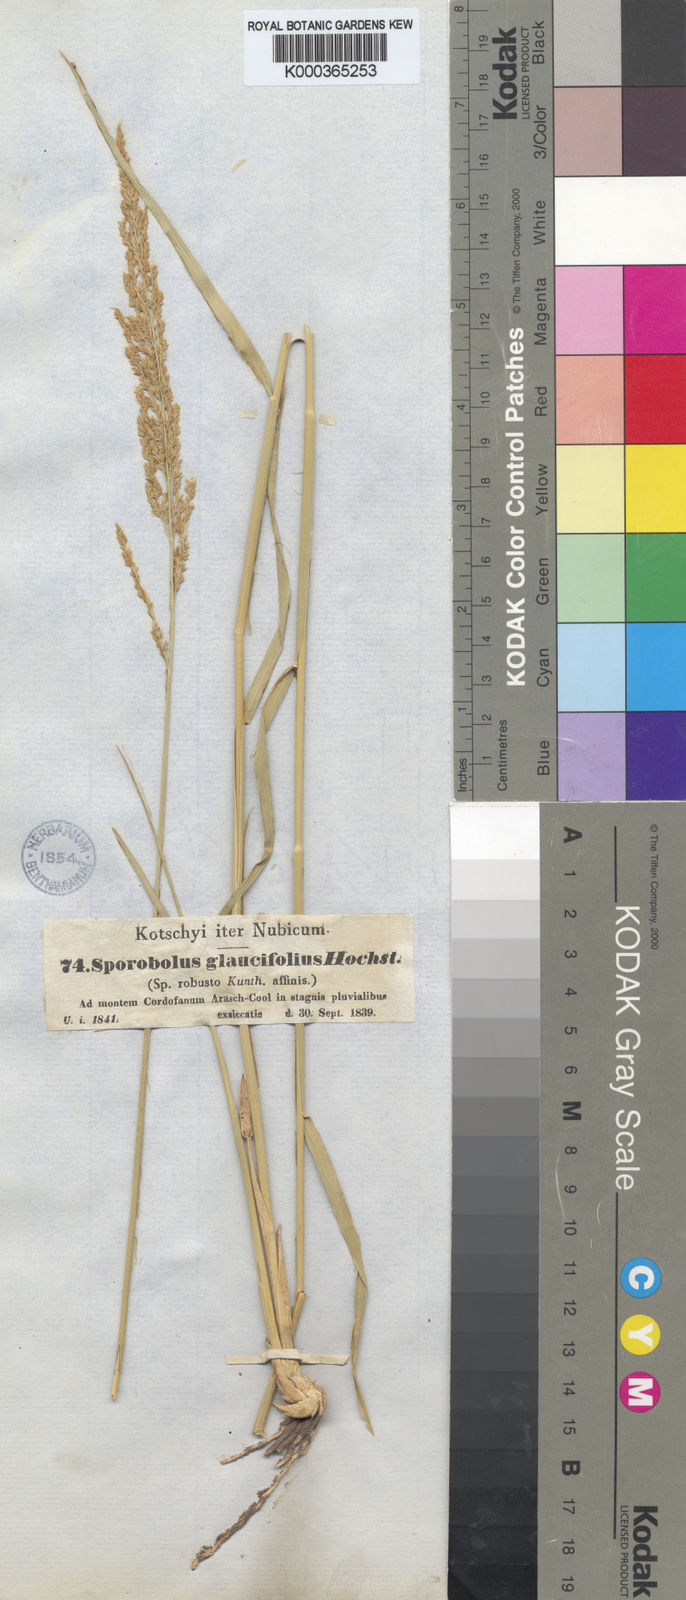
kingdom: Plantae
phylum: Tracheophyta
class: Liliopsida
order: Poales
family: Poaceae
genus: Sporobolus
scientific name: Sporobolus helvolus
